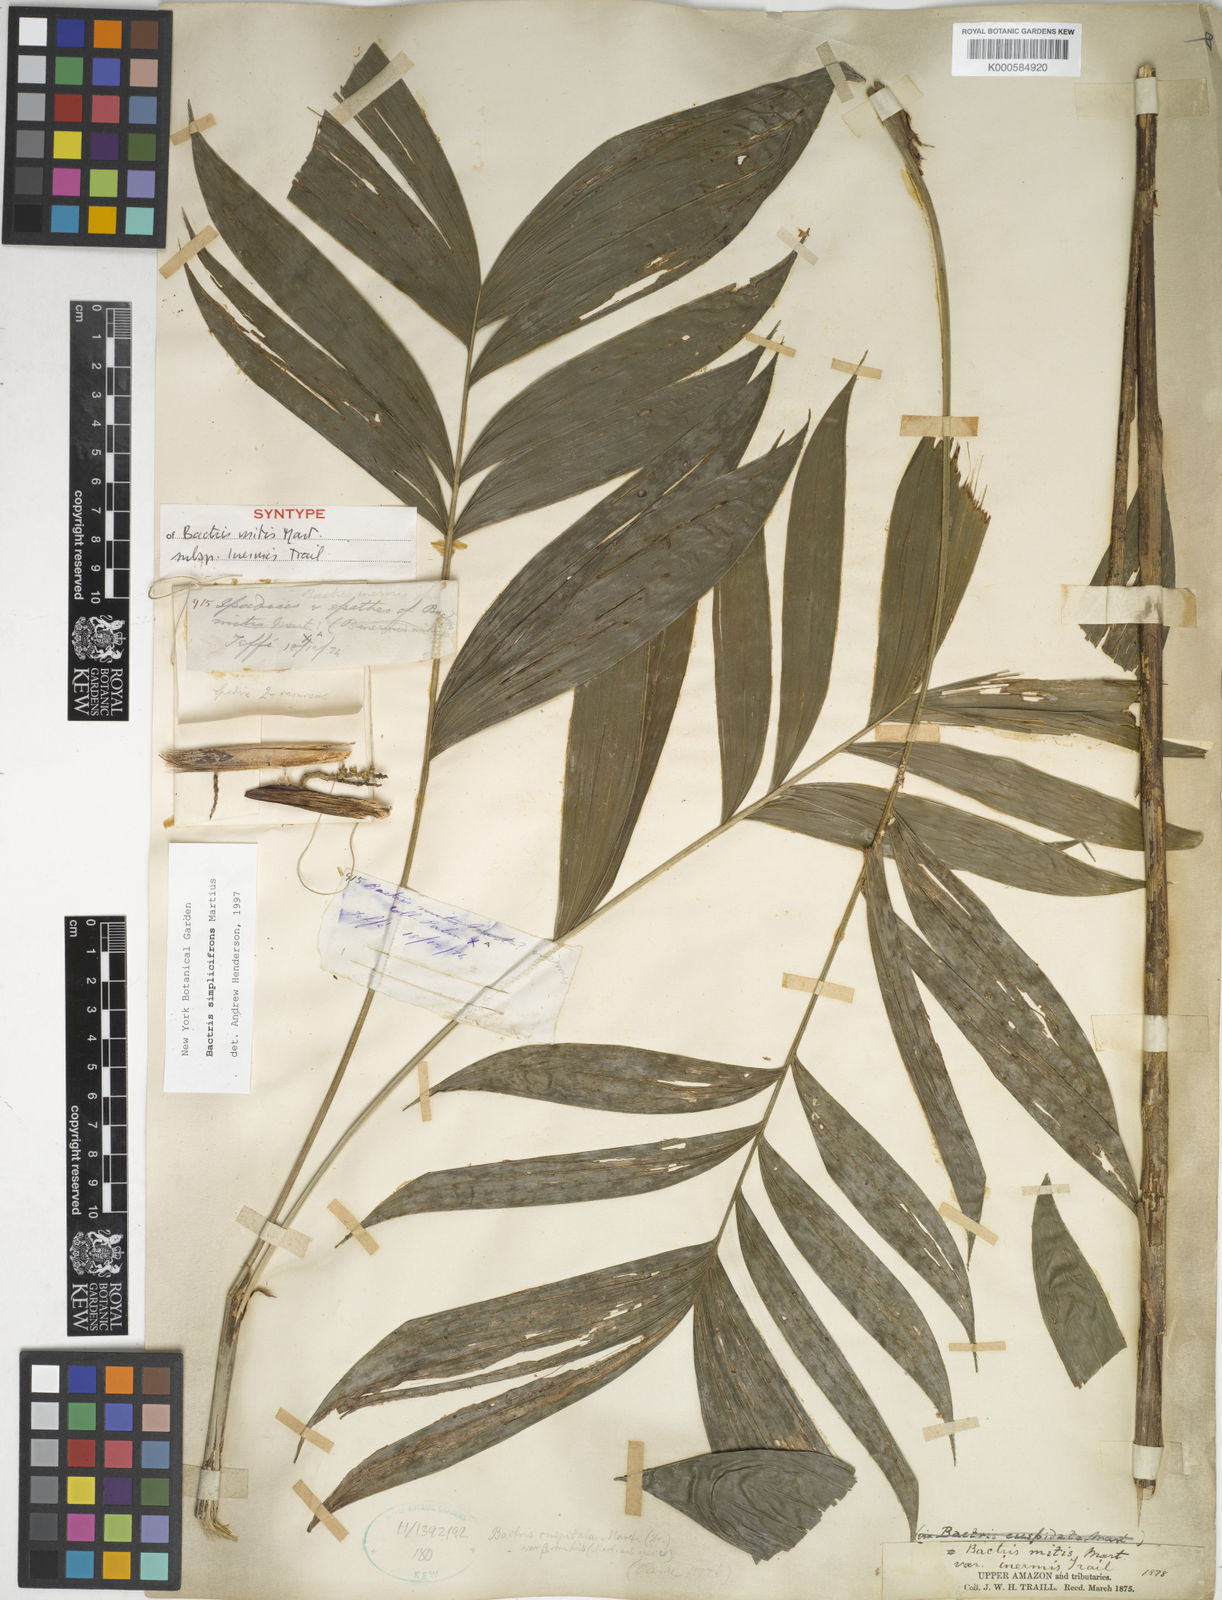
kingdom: Plantae
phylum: Tracheophyta
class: Liliopsida
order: Arecales
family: Arecaceae
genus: Bactris
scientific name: Bactris simplicifrons
